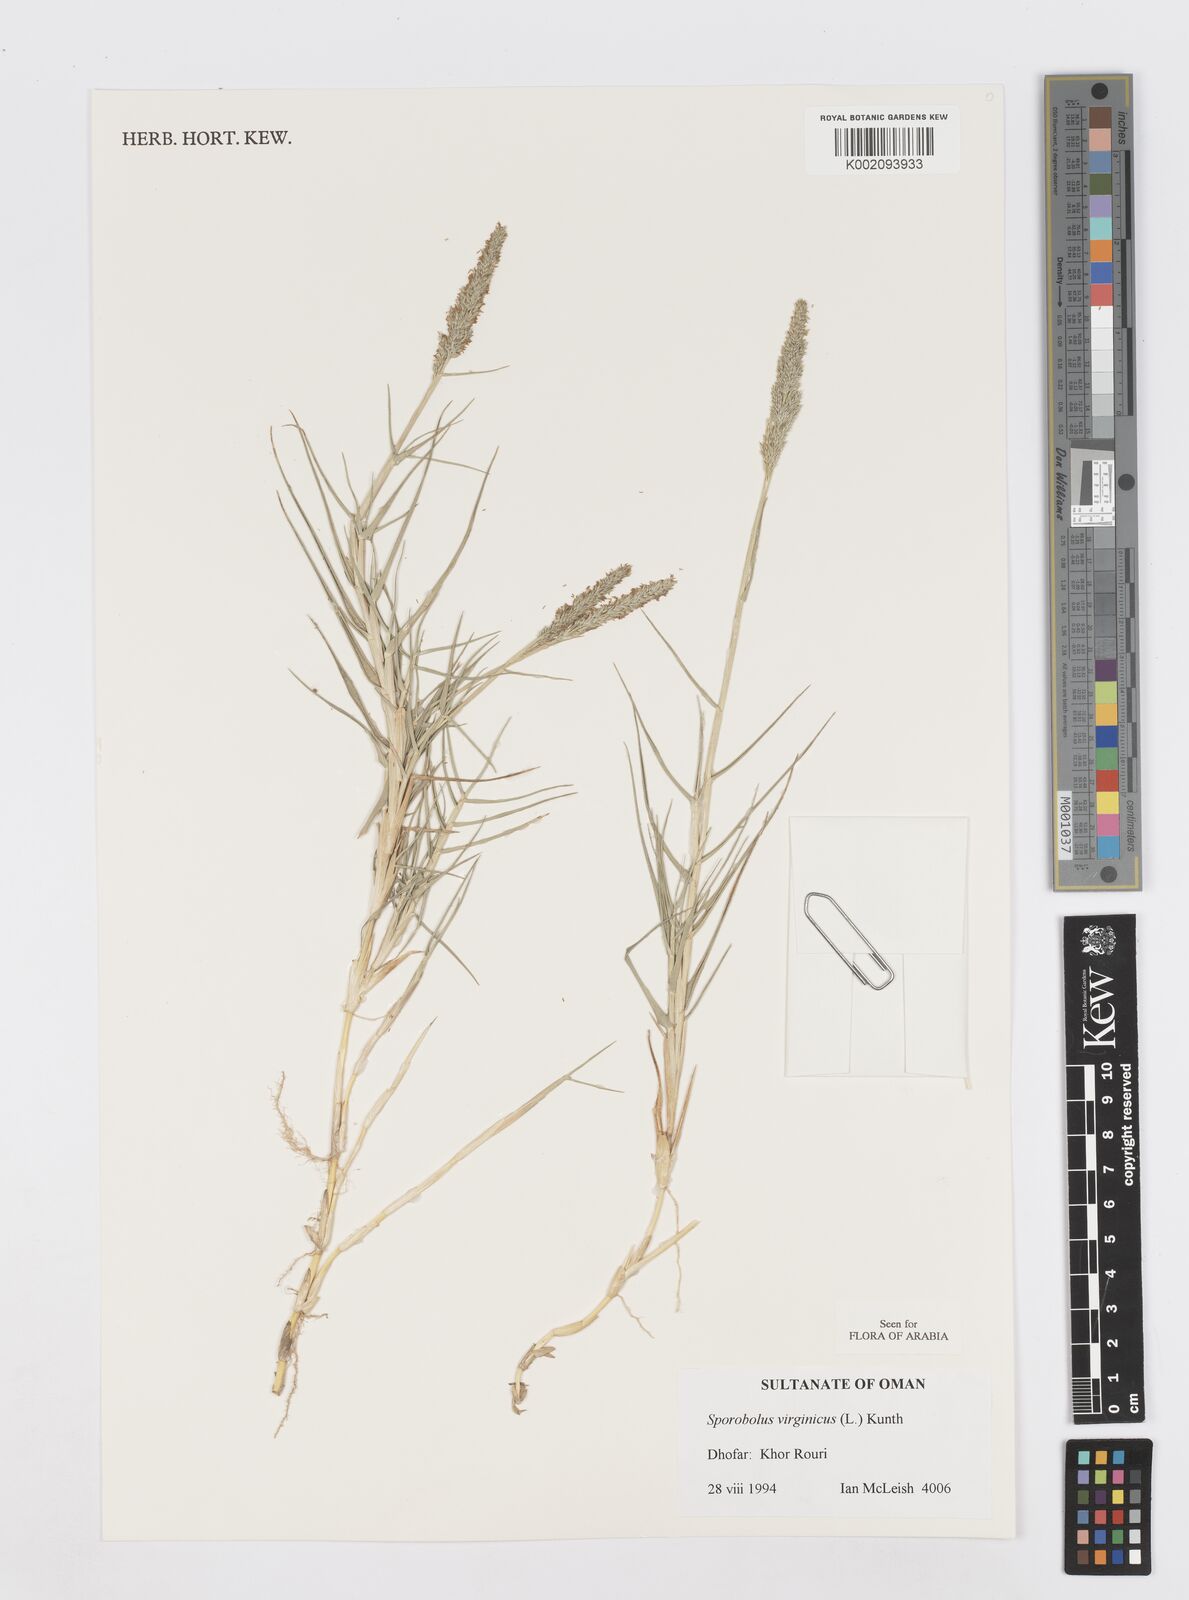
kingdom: Plantae
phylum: Tracheophyta
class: Liliopsida
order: Poales
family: Poaceae
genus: Sporobolus
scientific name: Sporobolus virginicus
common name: Beach dropseed
